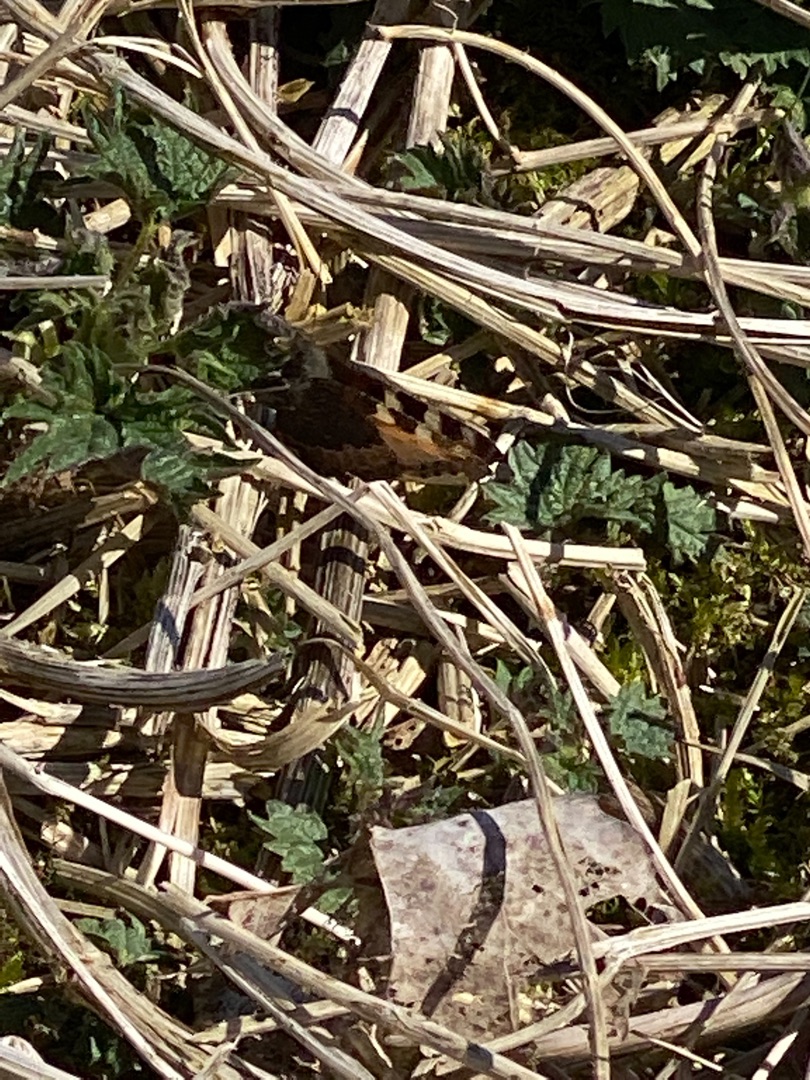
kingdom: Animalia
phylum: Arthropoda
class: Insecta
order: Lepidoptera
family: Nymphalidae
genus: Aglais
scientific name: Aglais urticae
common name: Nældens takvinge
